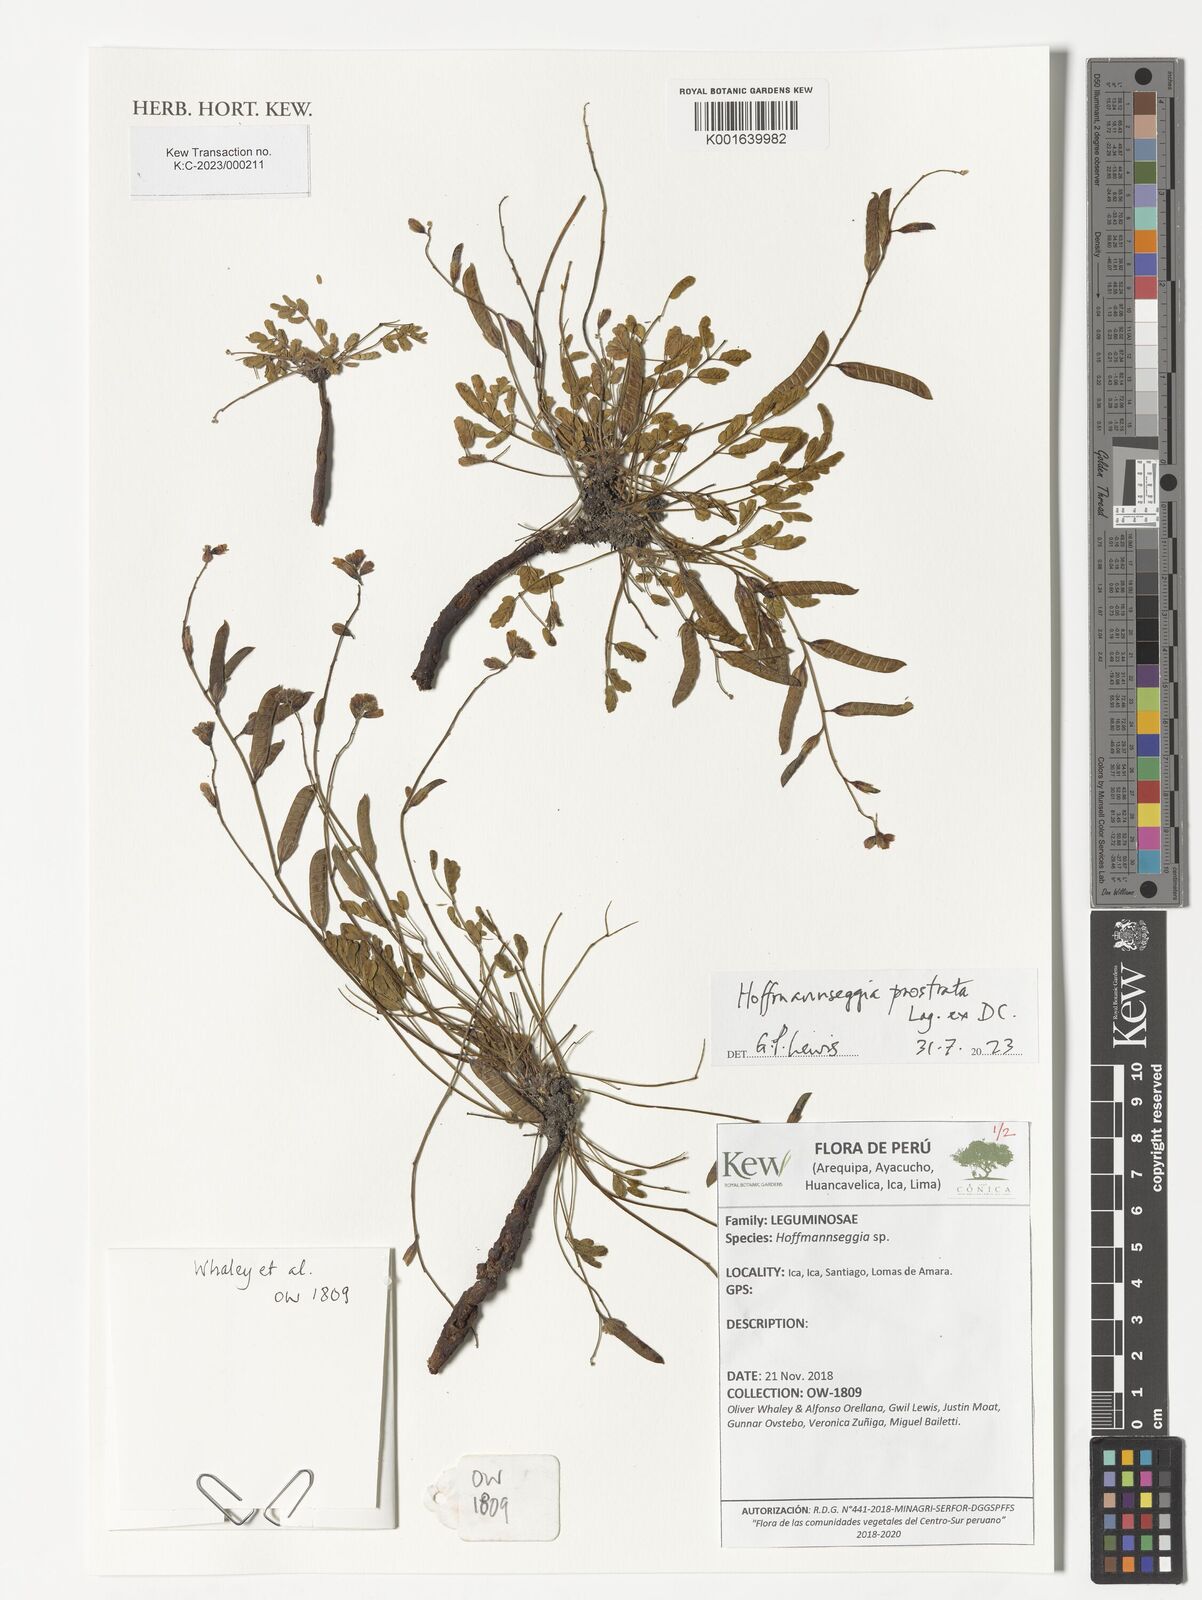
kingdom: Plantae
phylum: Tracheophyta
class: Magnoliopsida
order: Fabales
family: Fabaceae
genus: Hoffmannseggia
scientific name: Hoffmannseggia prostrata
